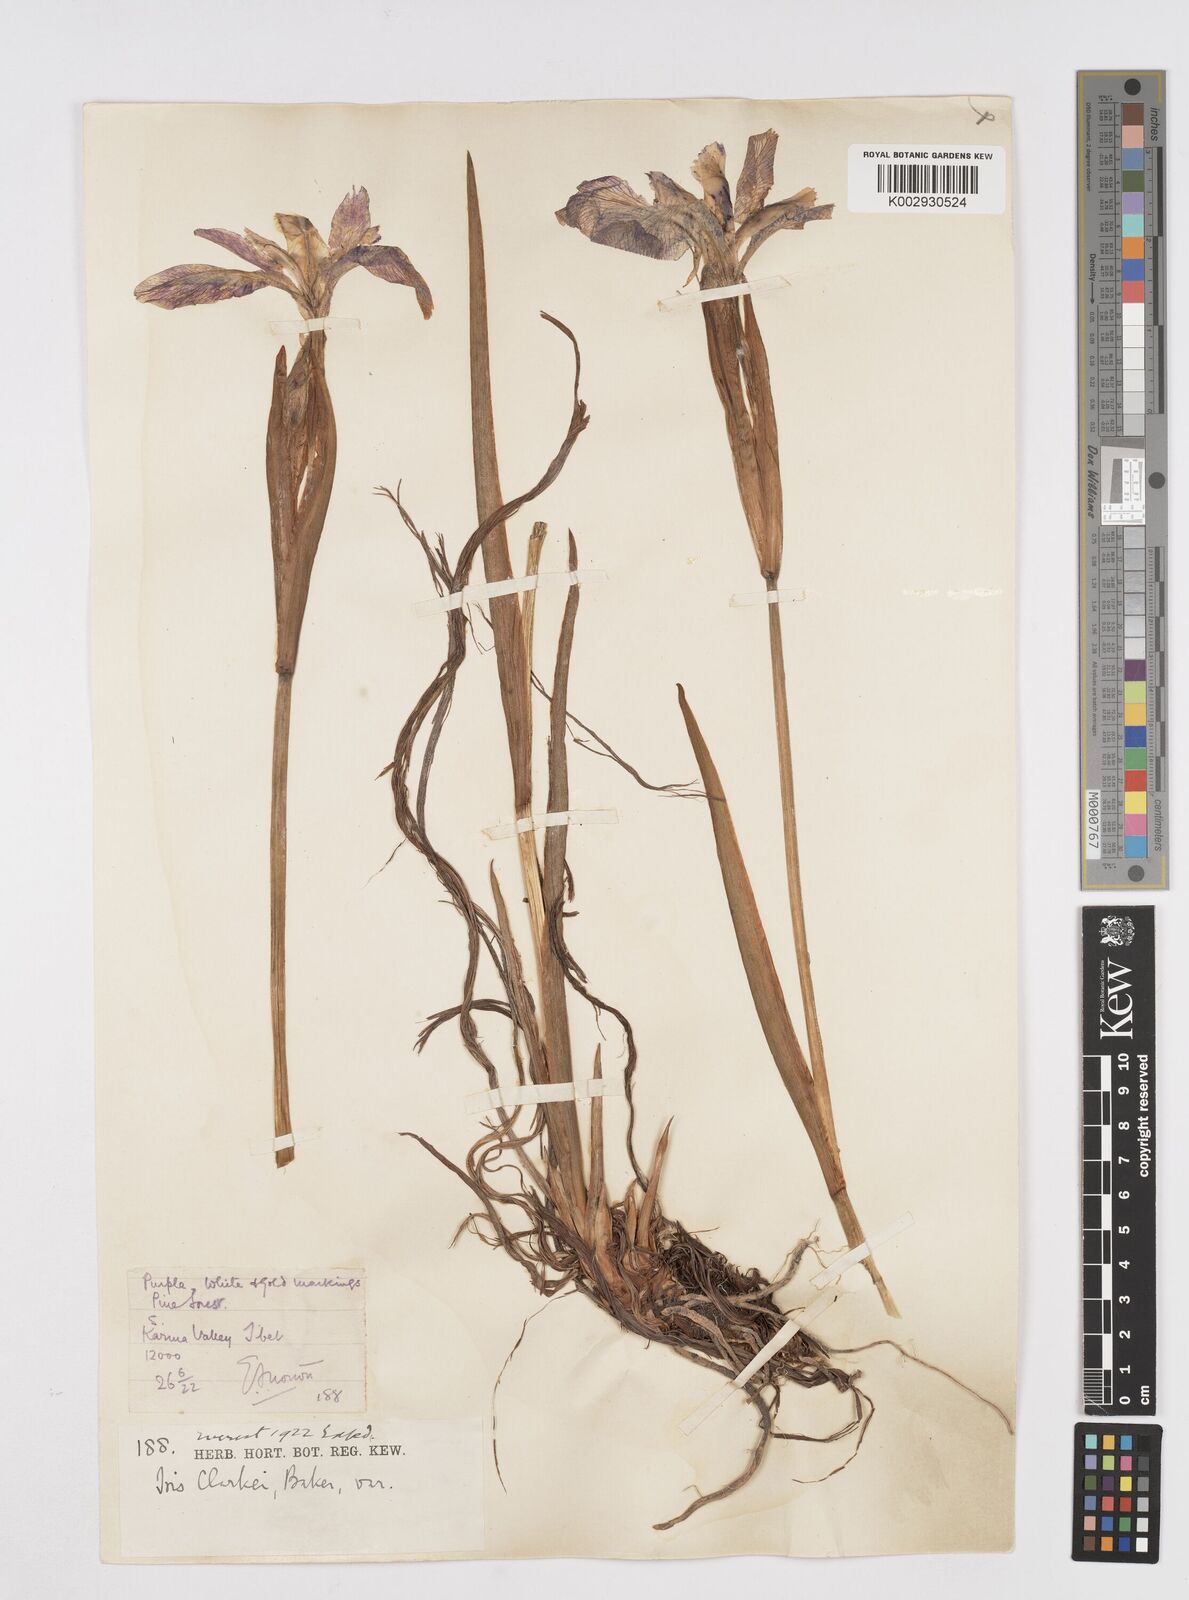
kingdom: Plantae
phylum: Tracheophyta
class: Liliopsida
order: Asparagales
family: Iridaceae
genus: Iris
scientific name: Iris clarkei
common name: Tibet iris
